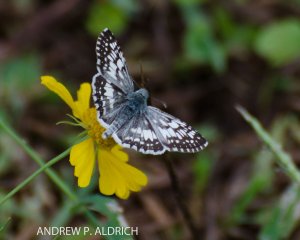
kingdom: Animalia
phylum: Arthropoda
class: Insecta
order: Lepidoptera
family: Hesperiidae
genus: Pyrgus
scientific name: Pyrgus communis
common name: Common Checkered-Skipper
